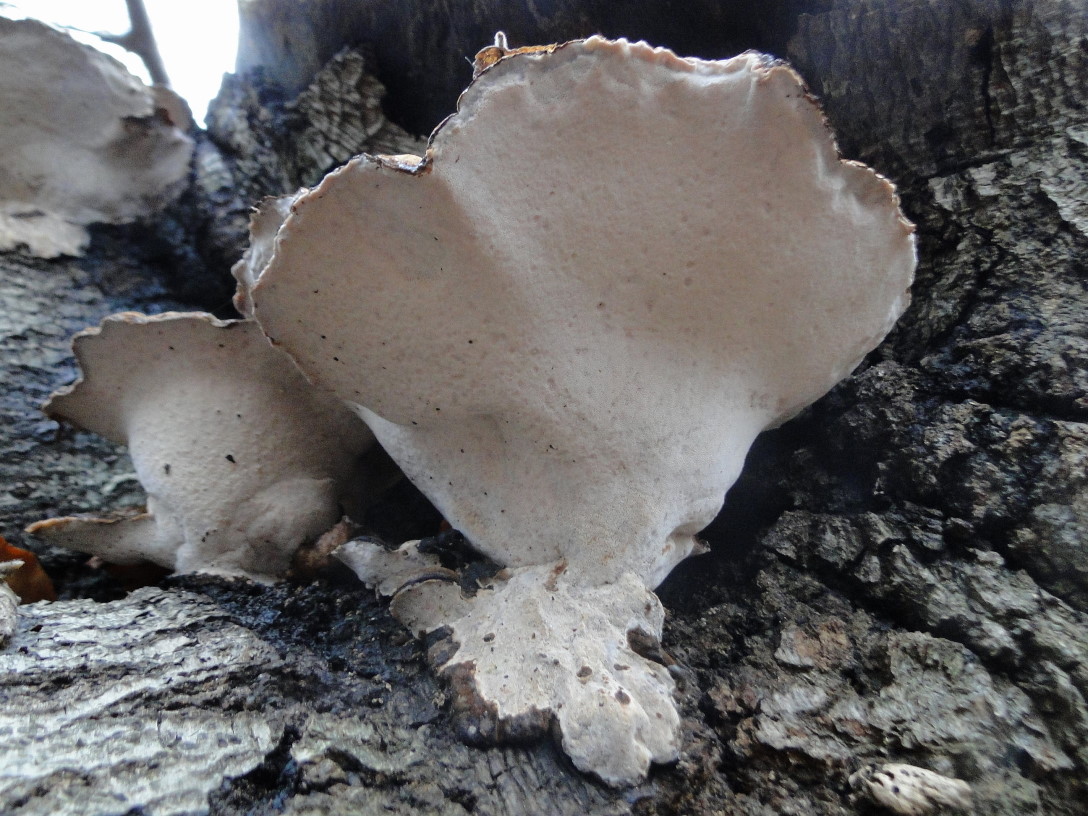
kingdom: Fungi
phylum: Basidiomycota
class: Agaricomycetes
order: Polyporales
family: Ischnodermataceae
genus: Ischnoderma
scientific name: Ischnoderma resinosum
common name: løv-tjæreporesvamp
